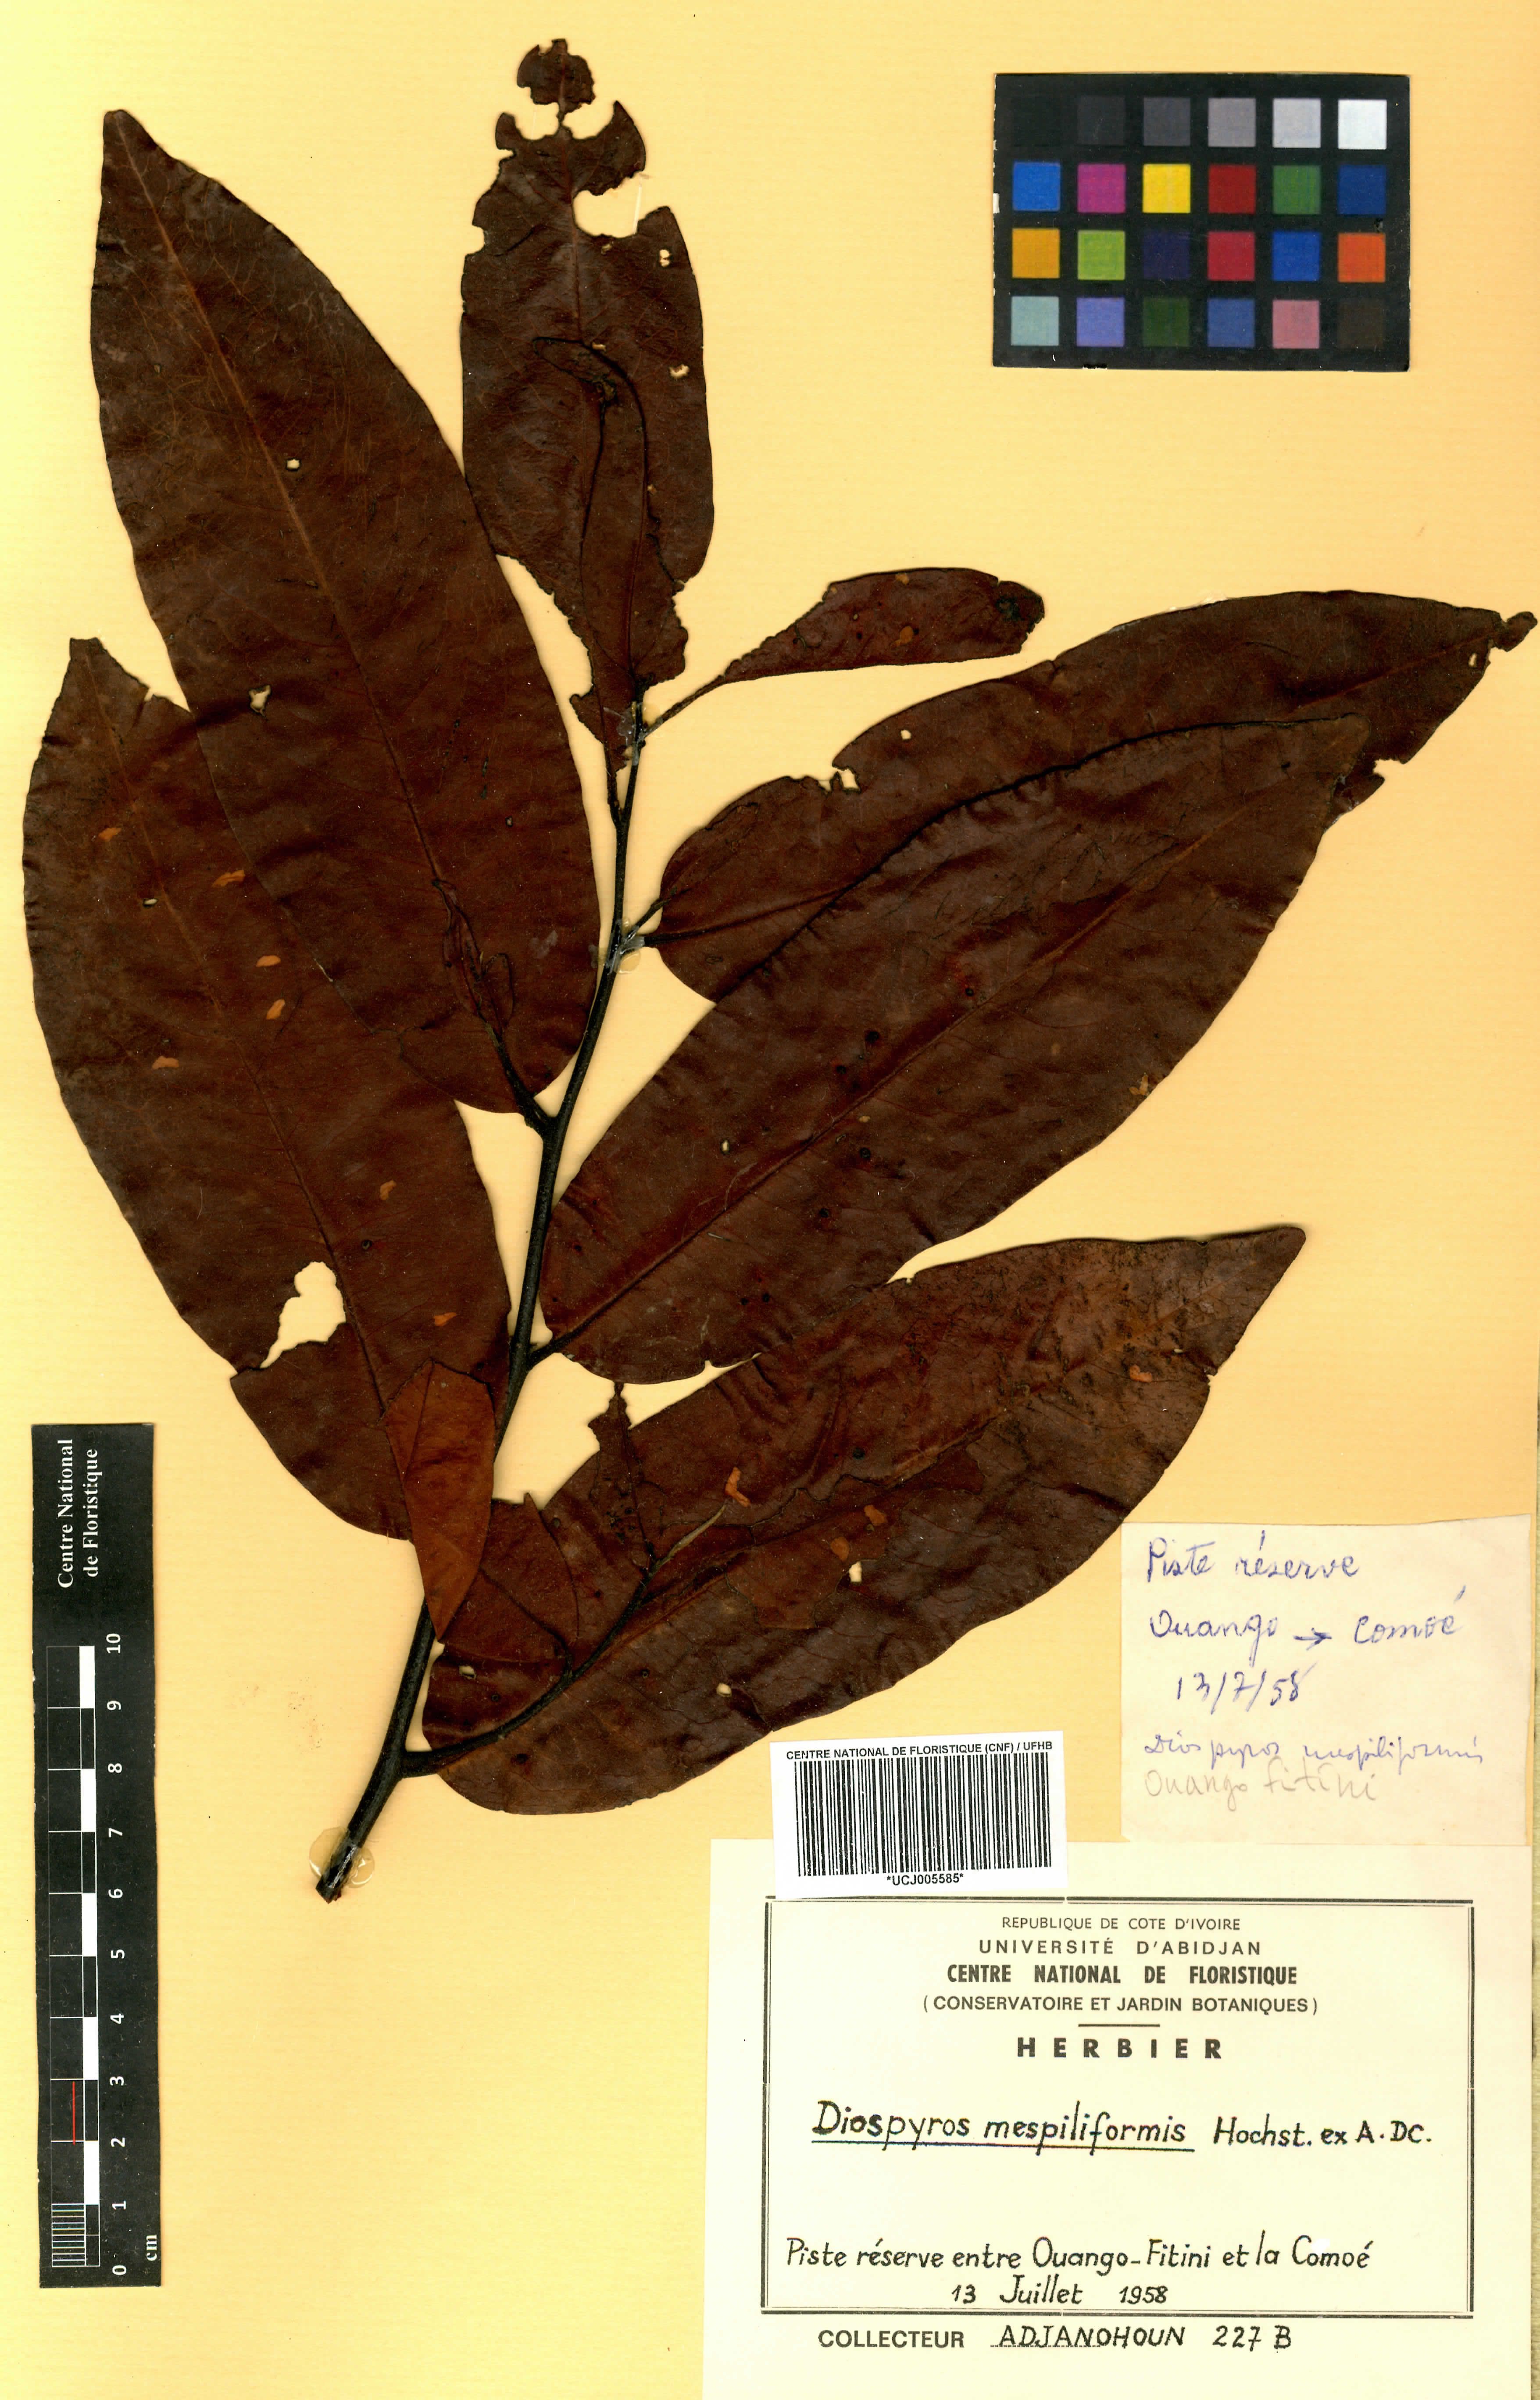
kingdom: Plantae
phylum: Tracheophyta
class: Magnoliopsida
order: Ericales
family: Ebenaceae
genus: Diospyros
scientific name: Diospyros mespiliformis
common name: Ebony diospyros
